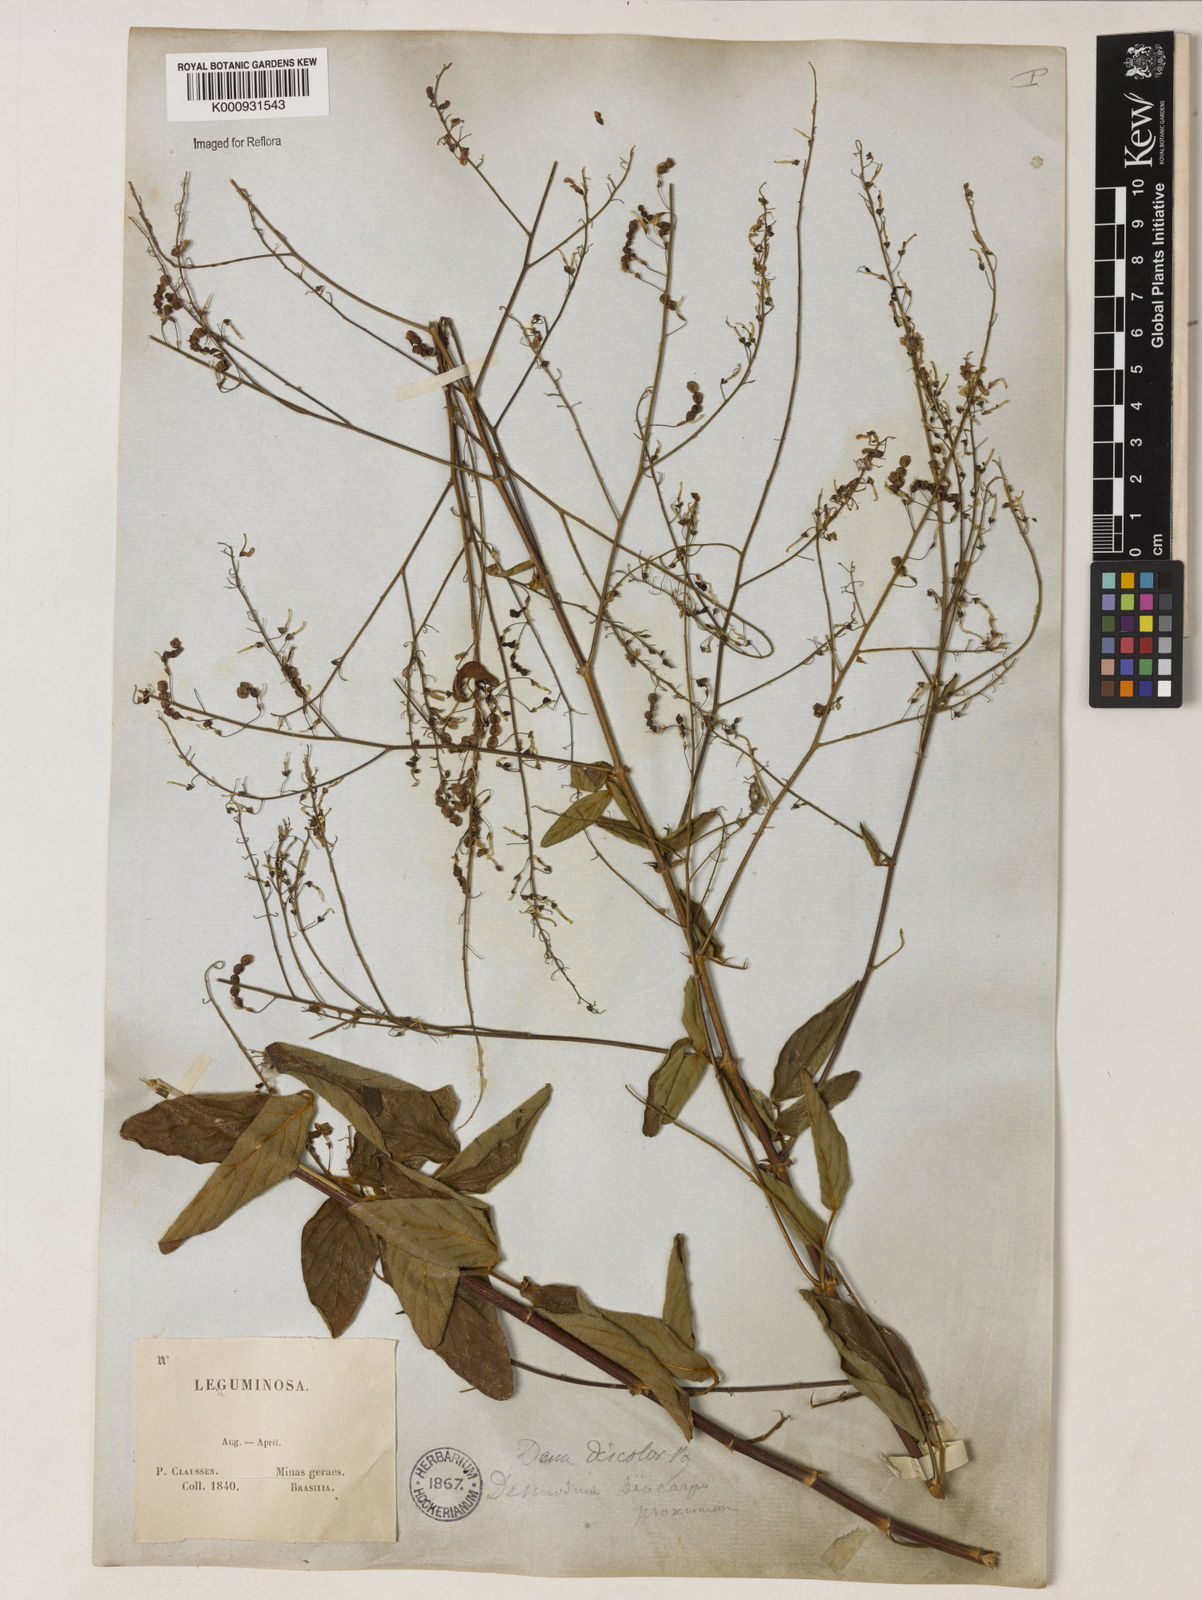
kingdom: Plantae
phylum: Tracheophyta
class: Magnoliopsida
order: Fabales
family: Fabaceae
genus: Desmodium
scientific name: Desmodium subsecundum
